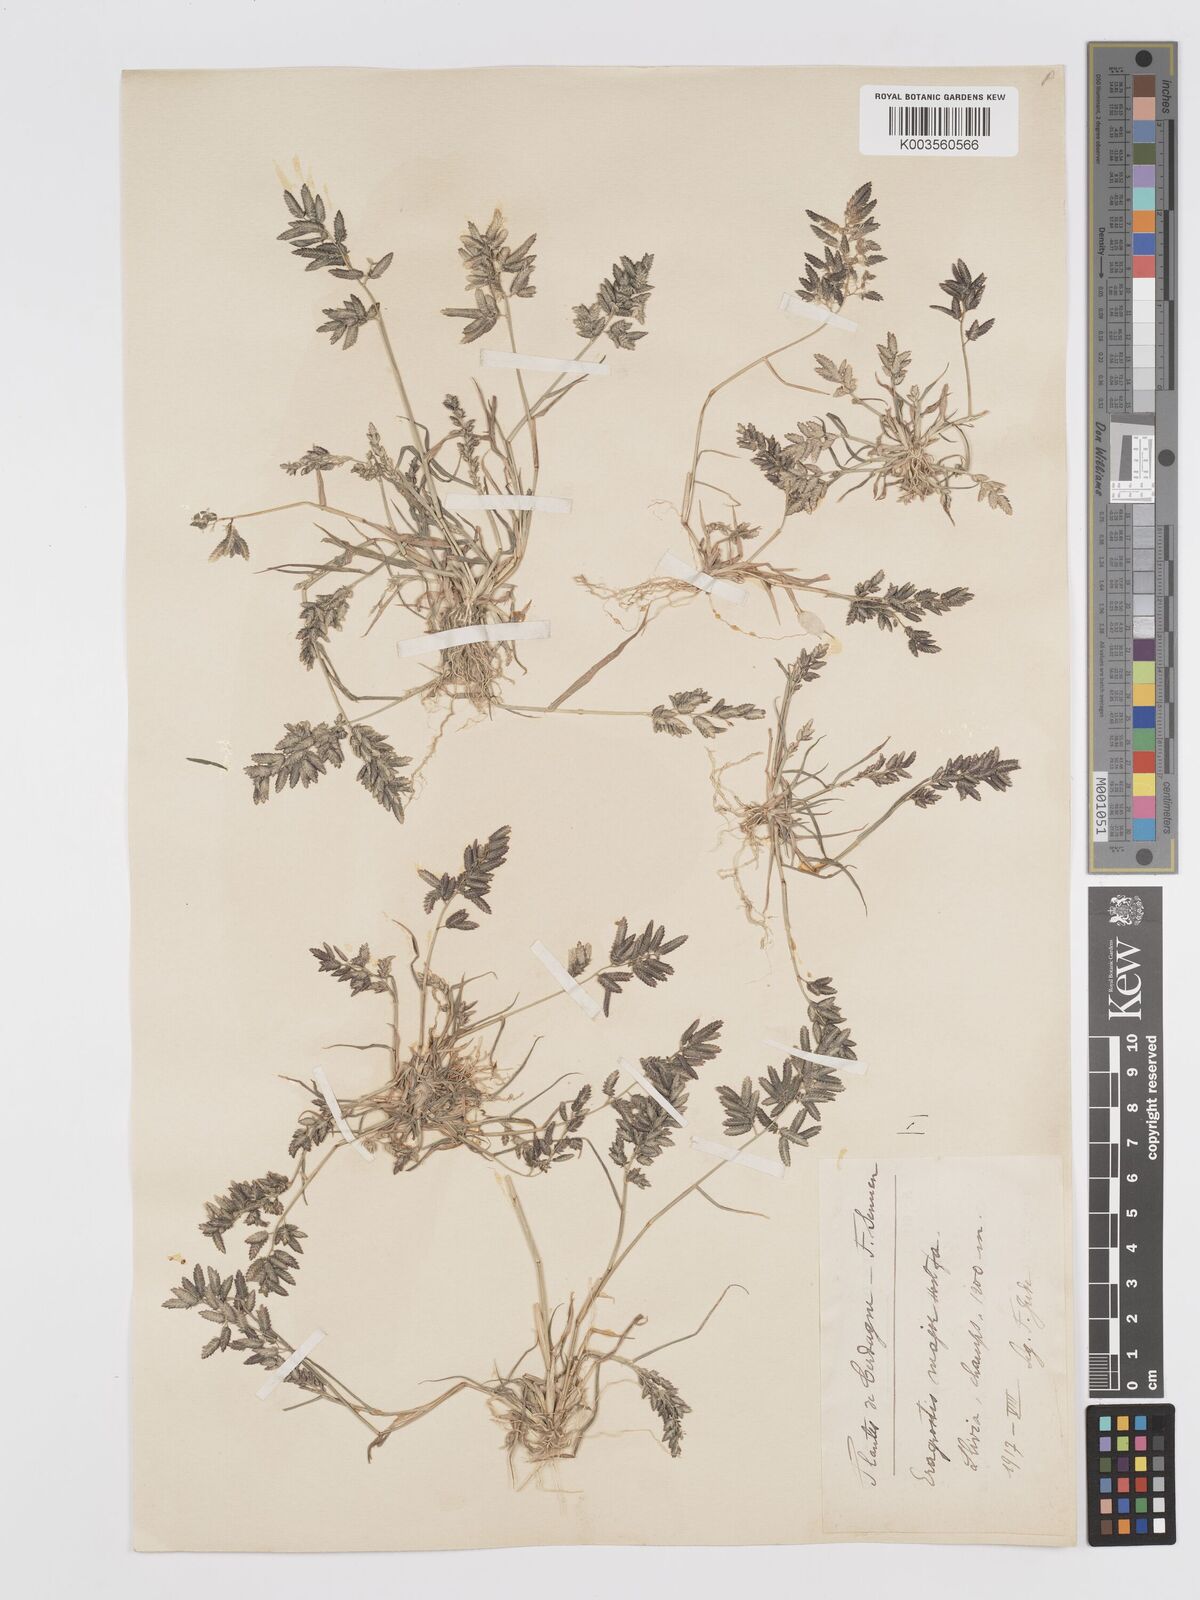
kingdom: Plantae
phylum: Tracheophyta
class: Liliopsida
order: Poales
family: Poaceae
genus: Eragrostis
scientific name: Eragrostis cilianensis
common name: Stinkgrass
